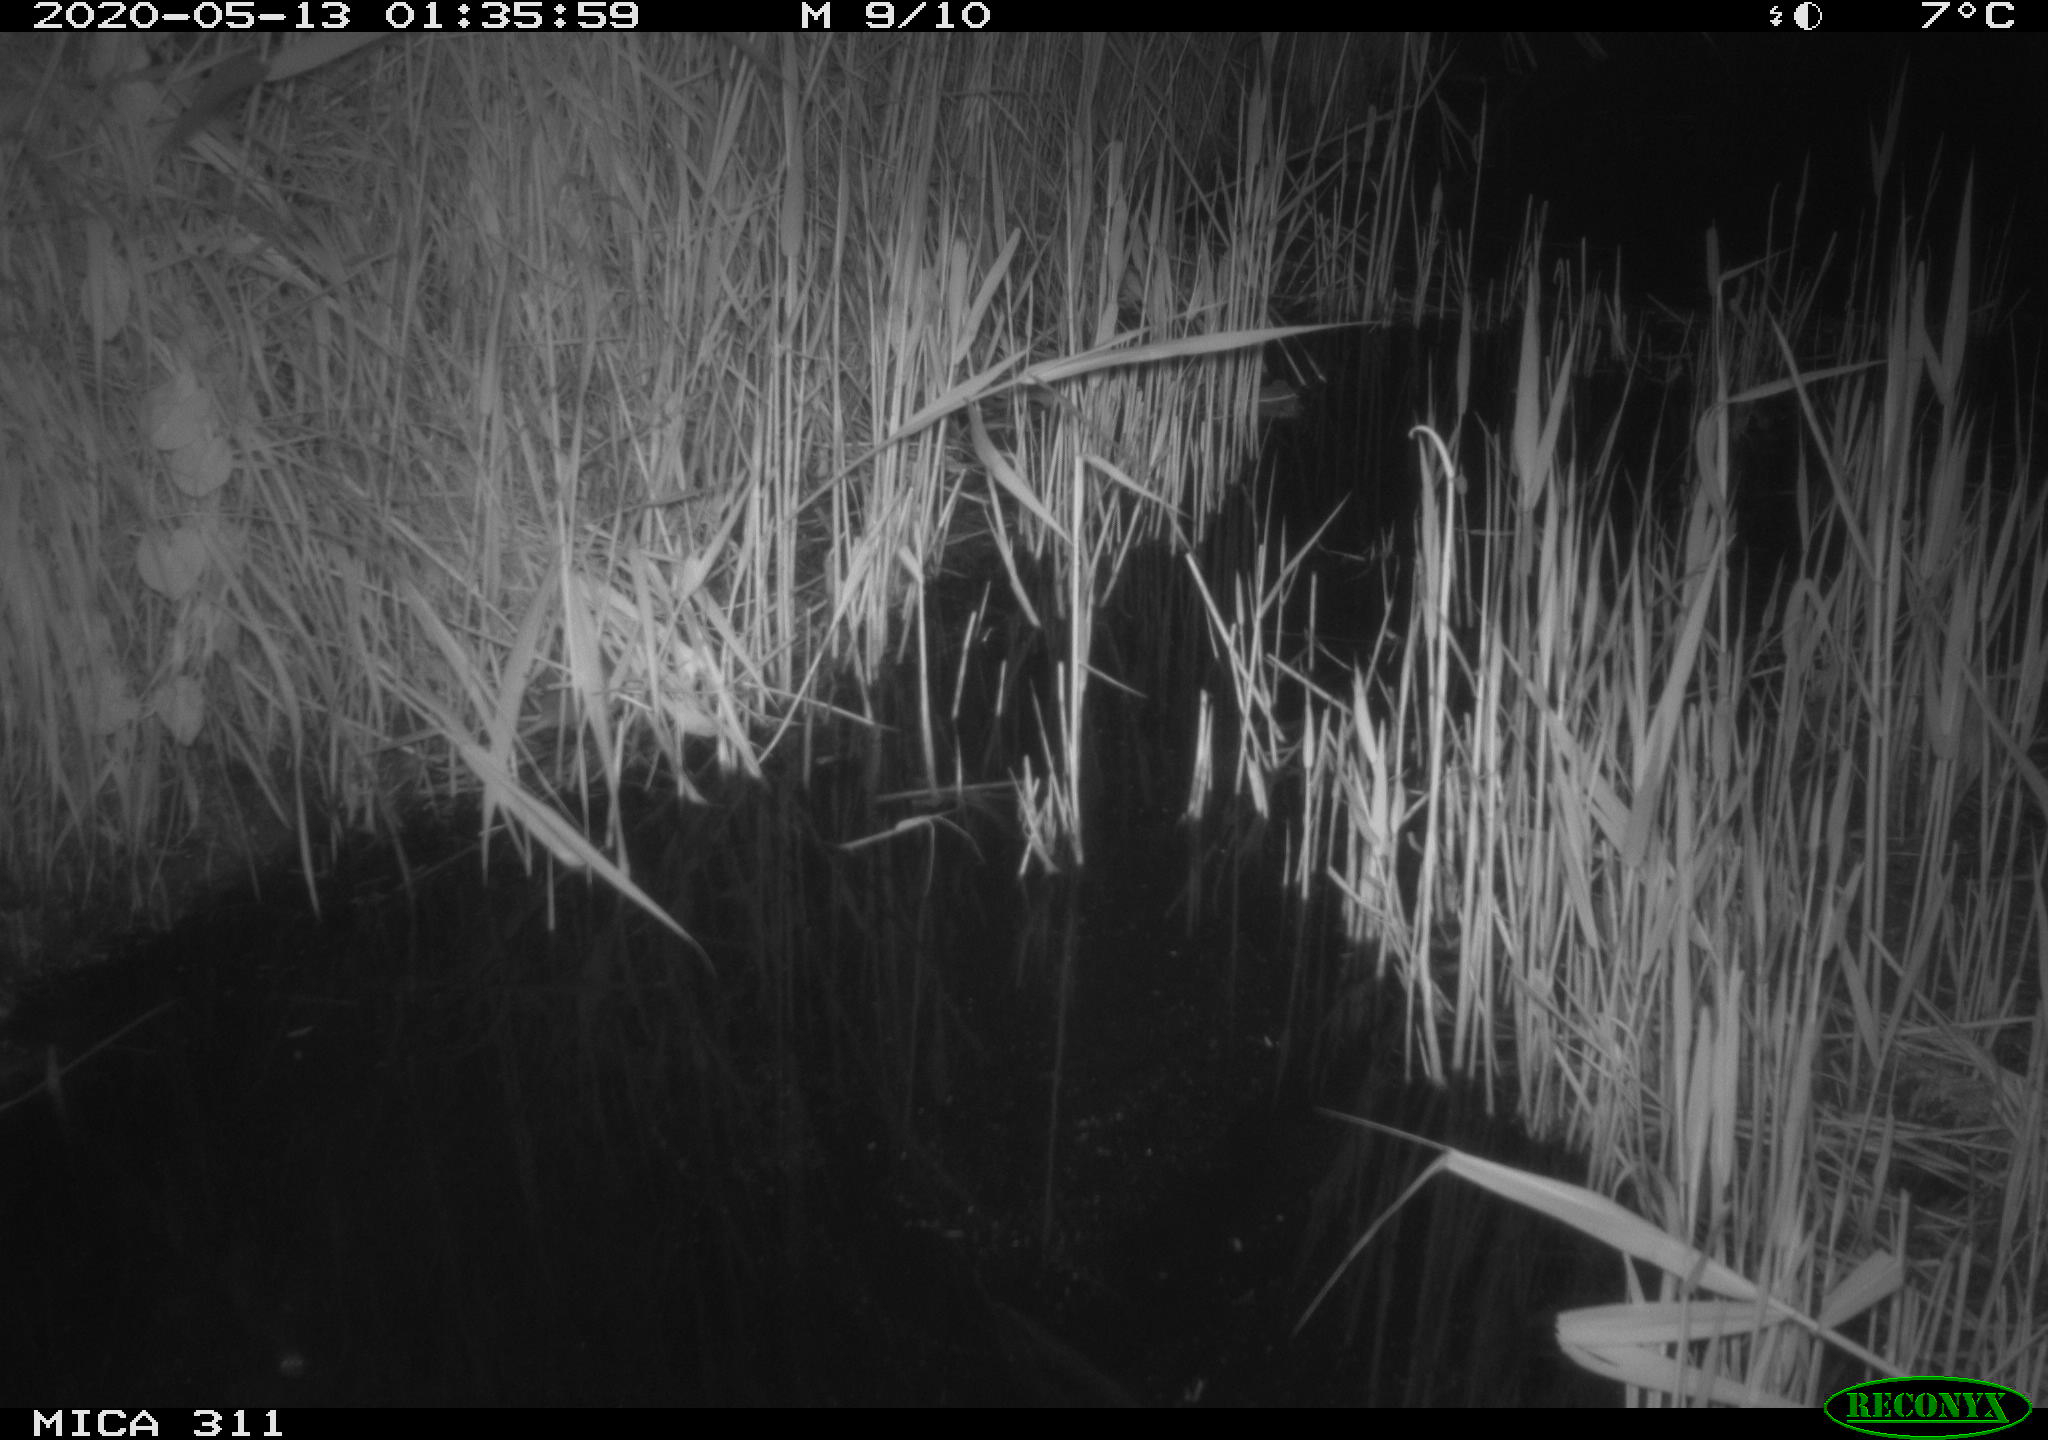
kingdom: Animalia
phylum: Chordata
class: Mammalia
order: Rodentia
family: Muridae
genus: Rattus
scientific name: Rattus norvegicus
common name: Brown rat
